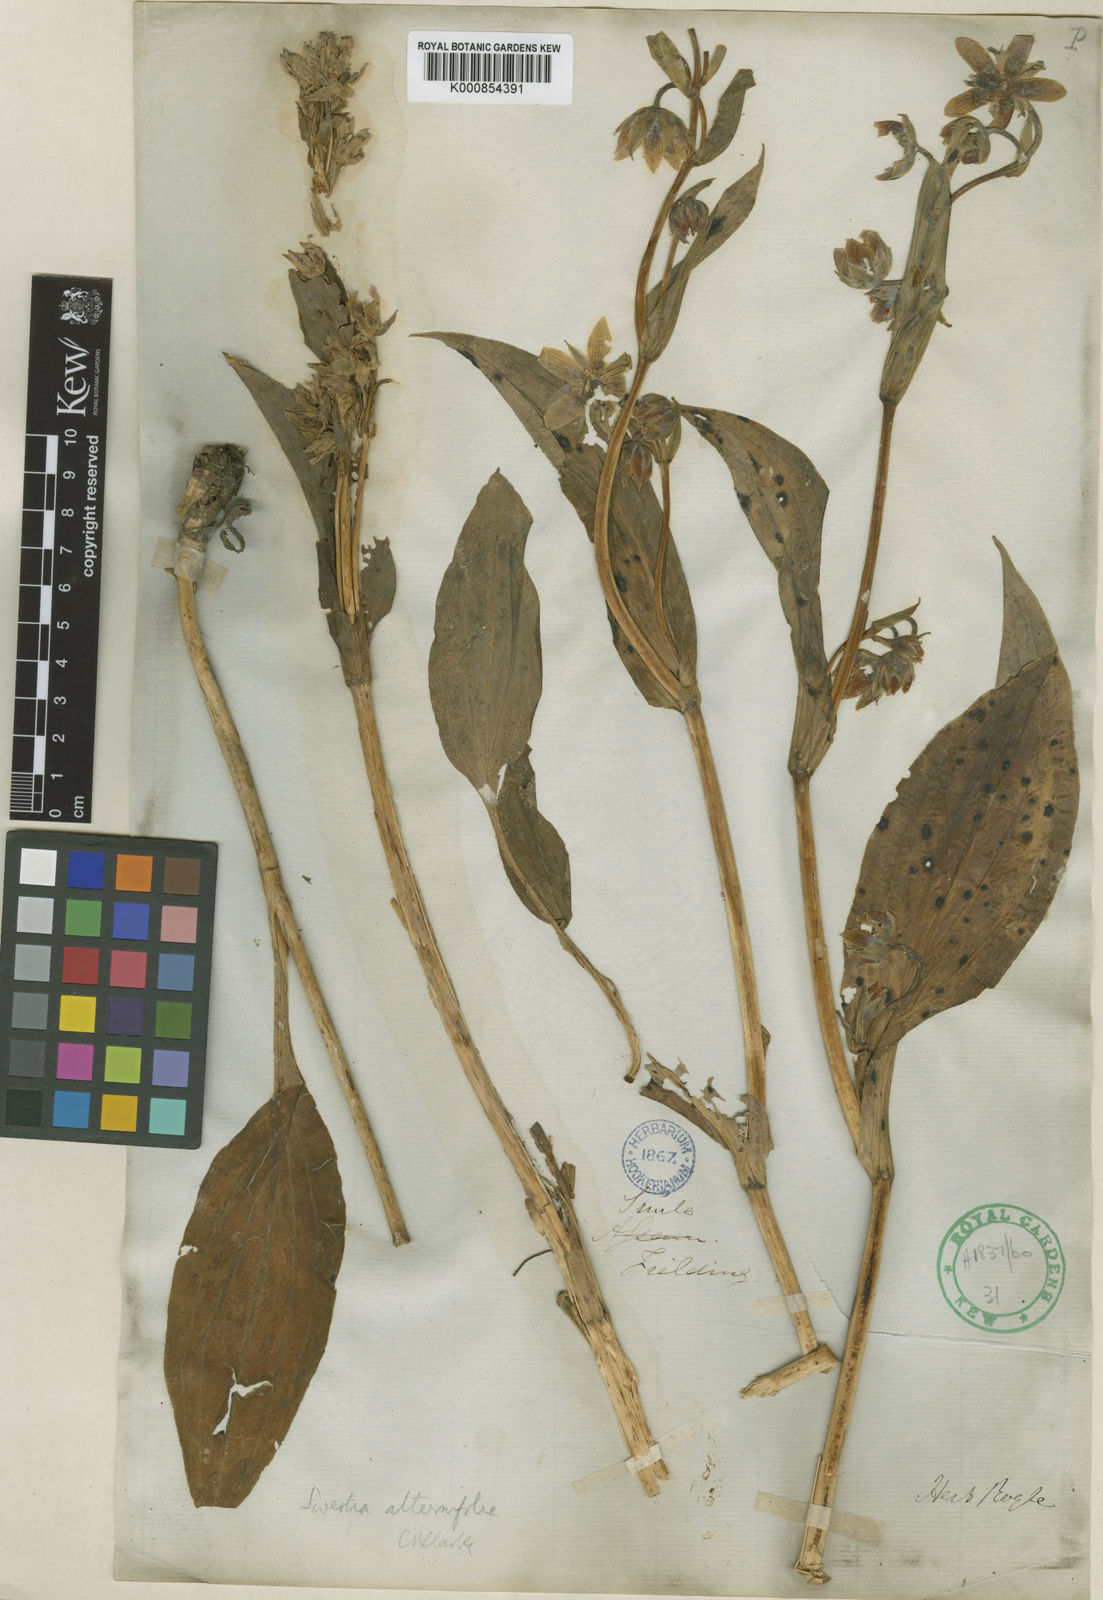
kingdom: Plantae
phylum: Tracheophyta
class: Magnoliopsida
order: Gentianales
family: Gentianaceae
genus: Swertia
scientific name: Swertia alternifolia
